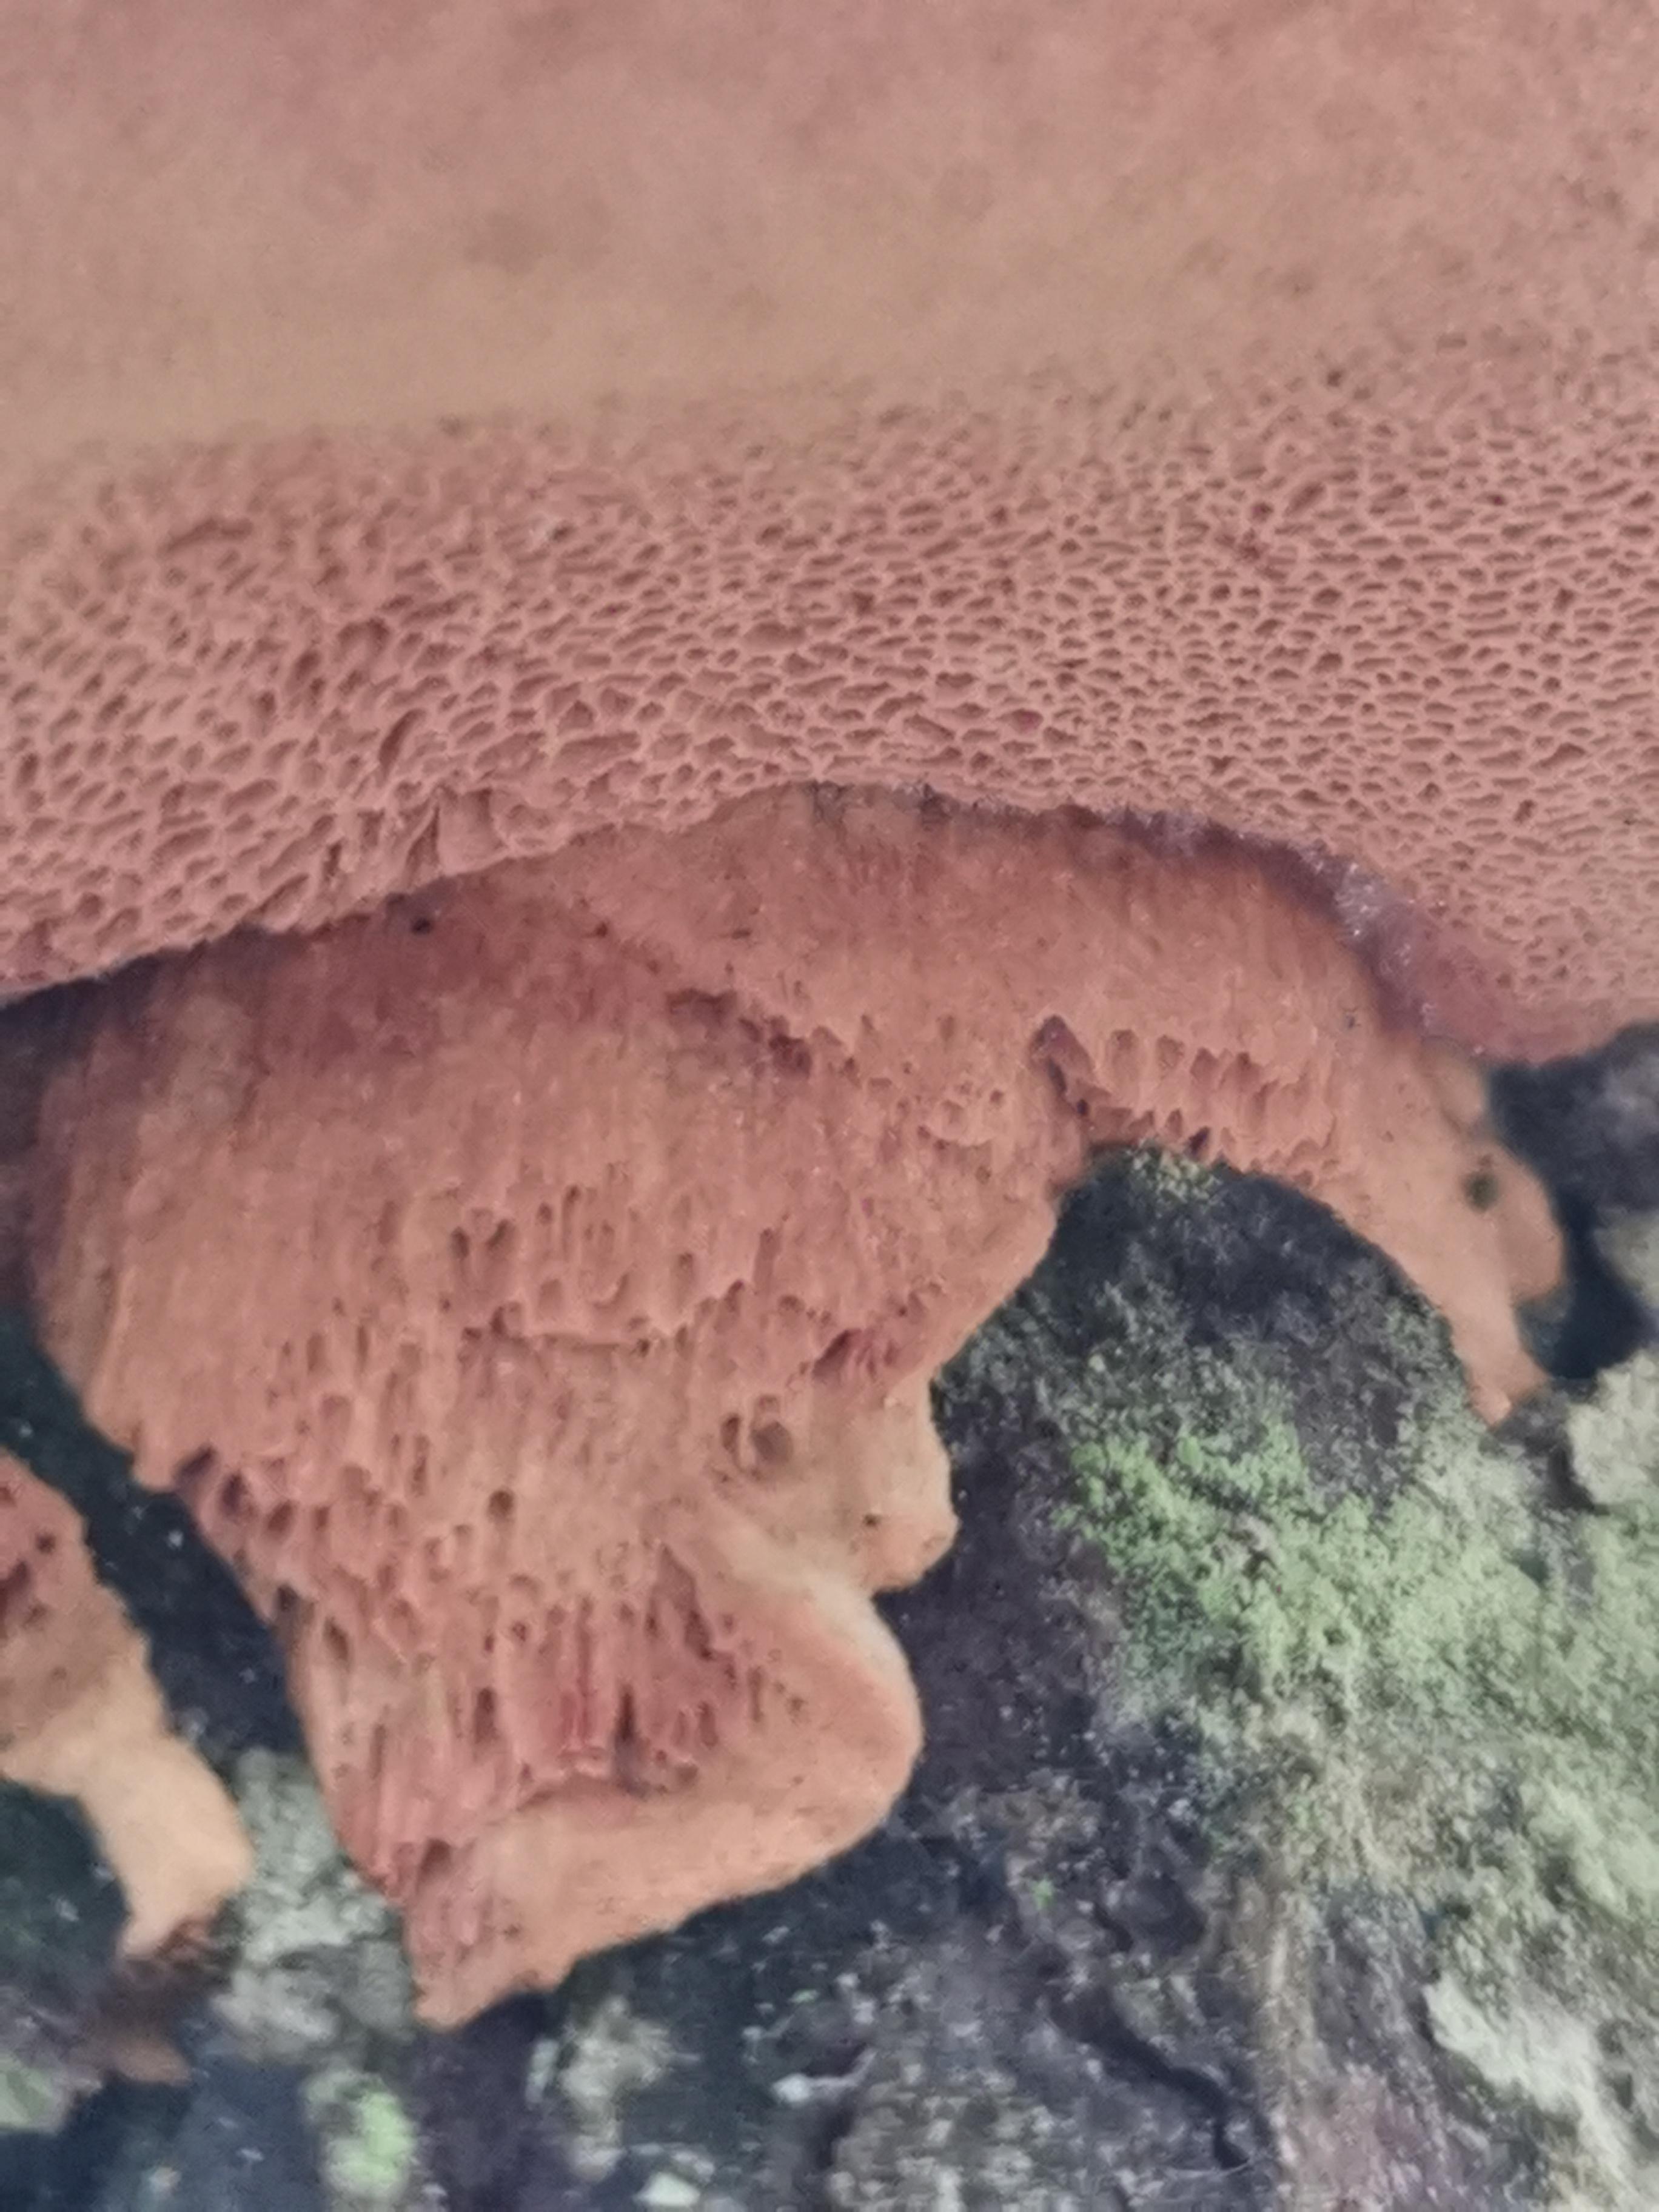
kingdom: Fungi
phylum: Basidiomycota
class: Agaricomycetes
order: Polyporales
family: Phanerochaetaceae
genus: Hapalopilus
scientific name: Hapalopilus rutilans
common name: rødlig okkerporesvamp
